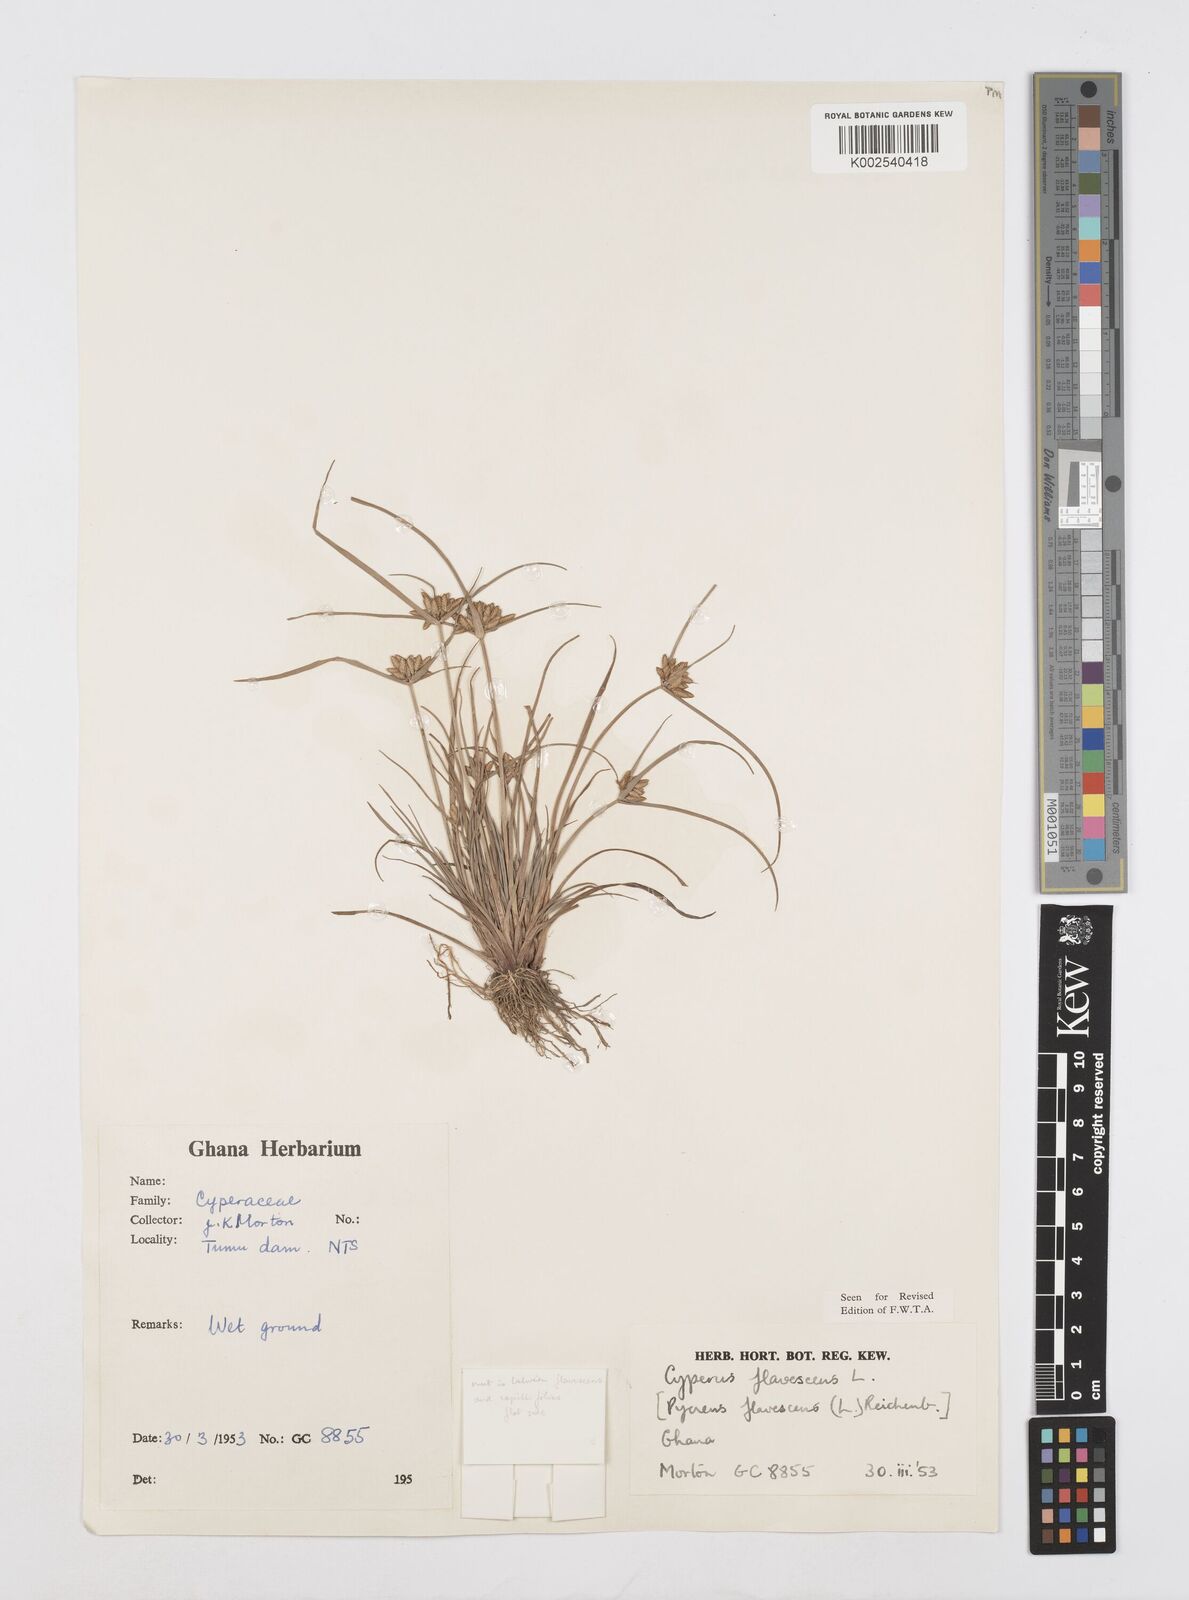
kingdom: Plantae
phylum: Tracheophyta
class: Liliopsida
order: Poales
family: Cyperaceae
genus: Cyperus
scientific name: Cyperus flavescens
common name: Yellow galingale
